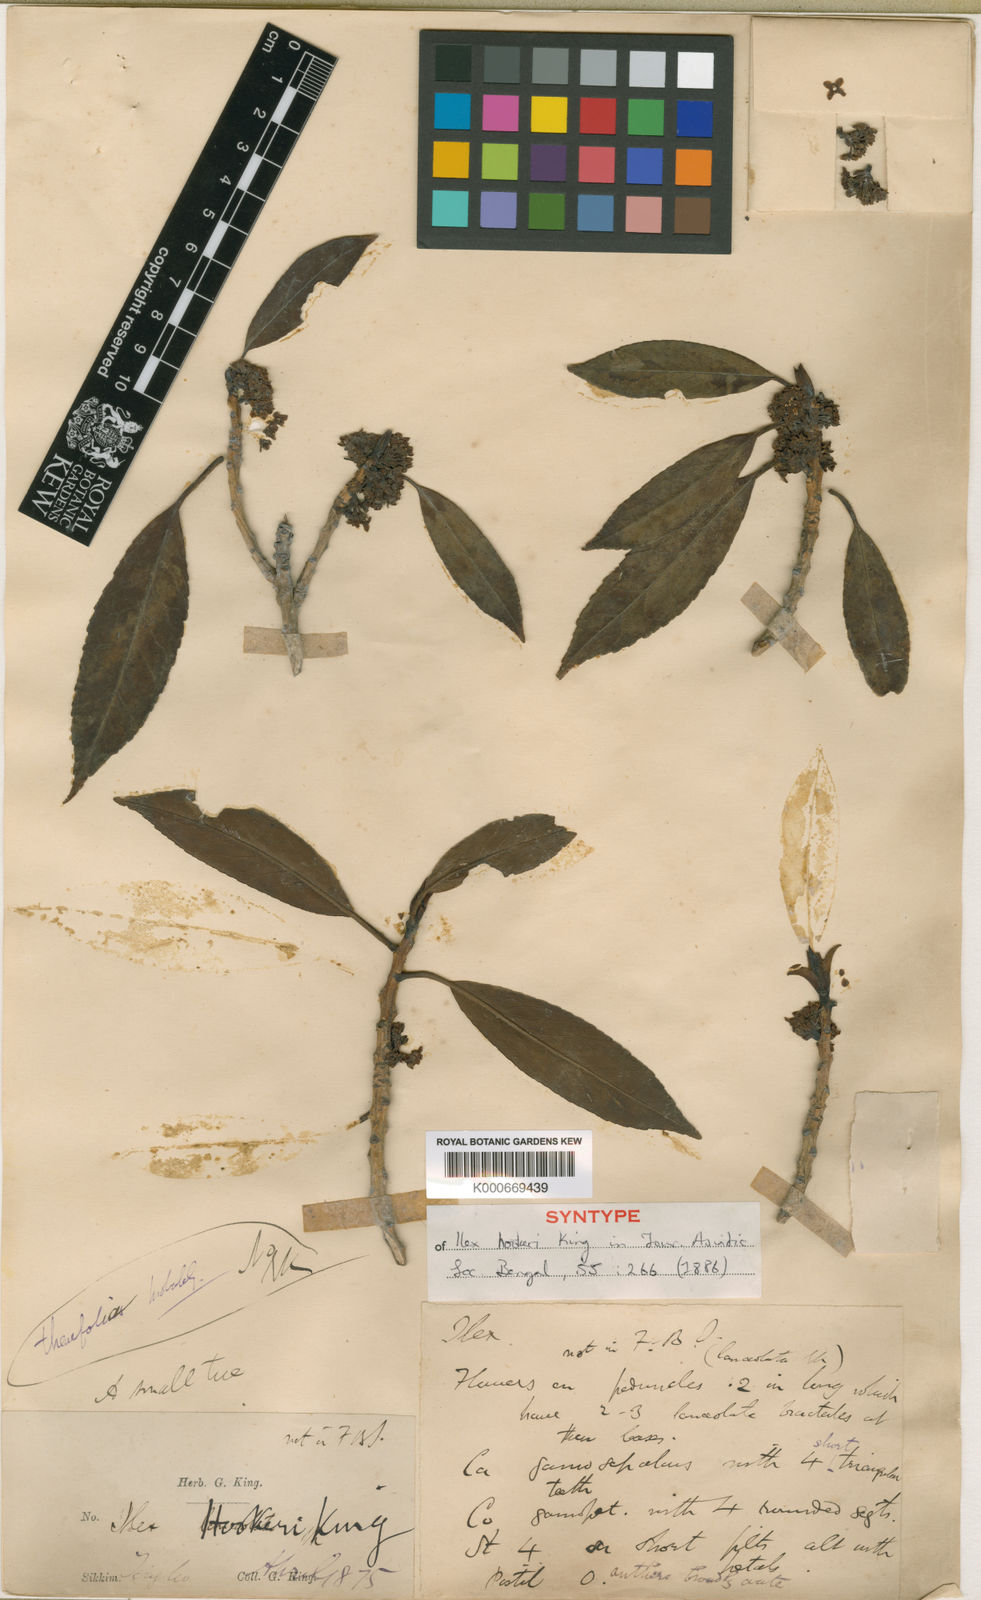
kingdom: Plantae
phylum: Tracheophyta
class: Magnoliopsida
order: Aquifoliales
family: Aquifoliaceae
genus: Ilex
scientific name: Ilex hookeri
